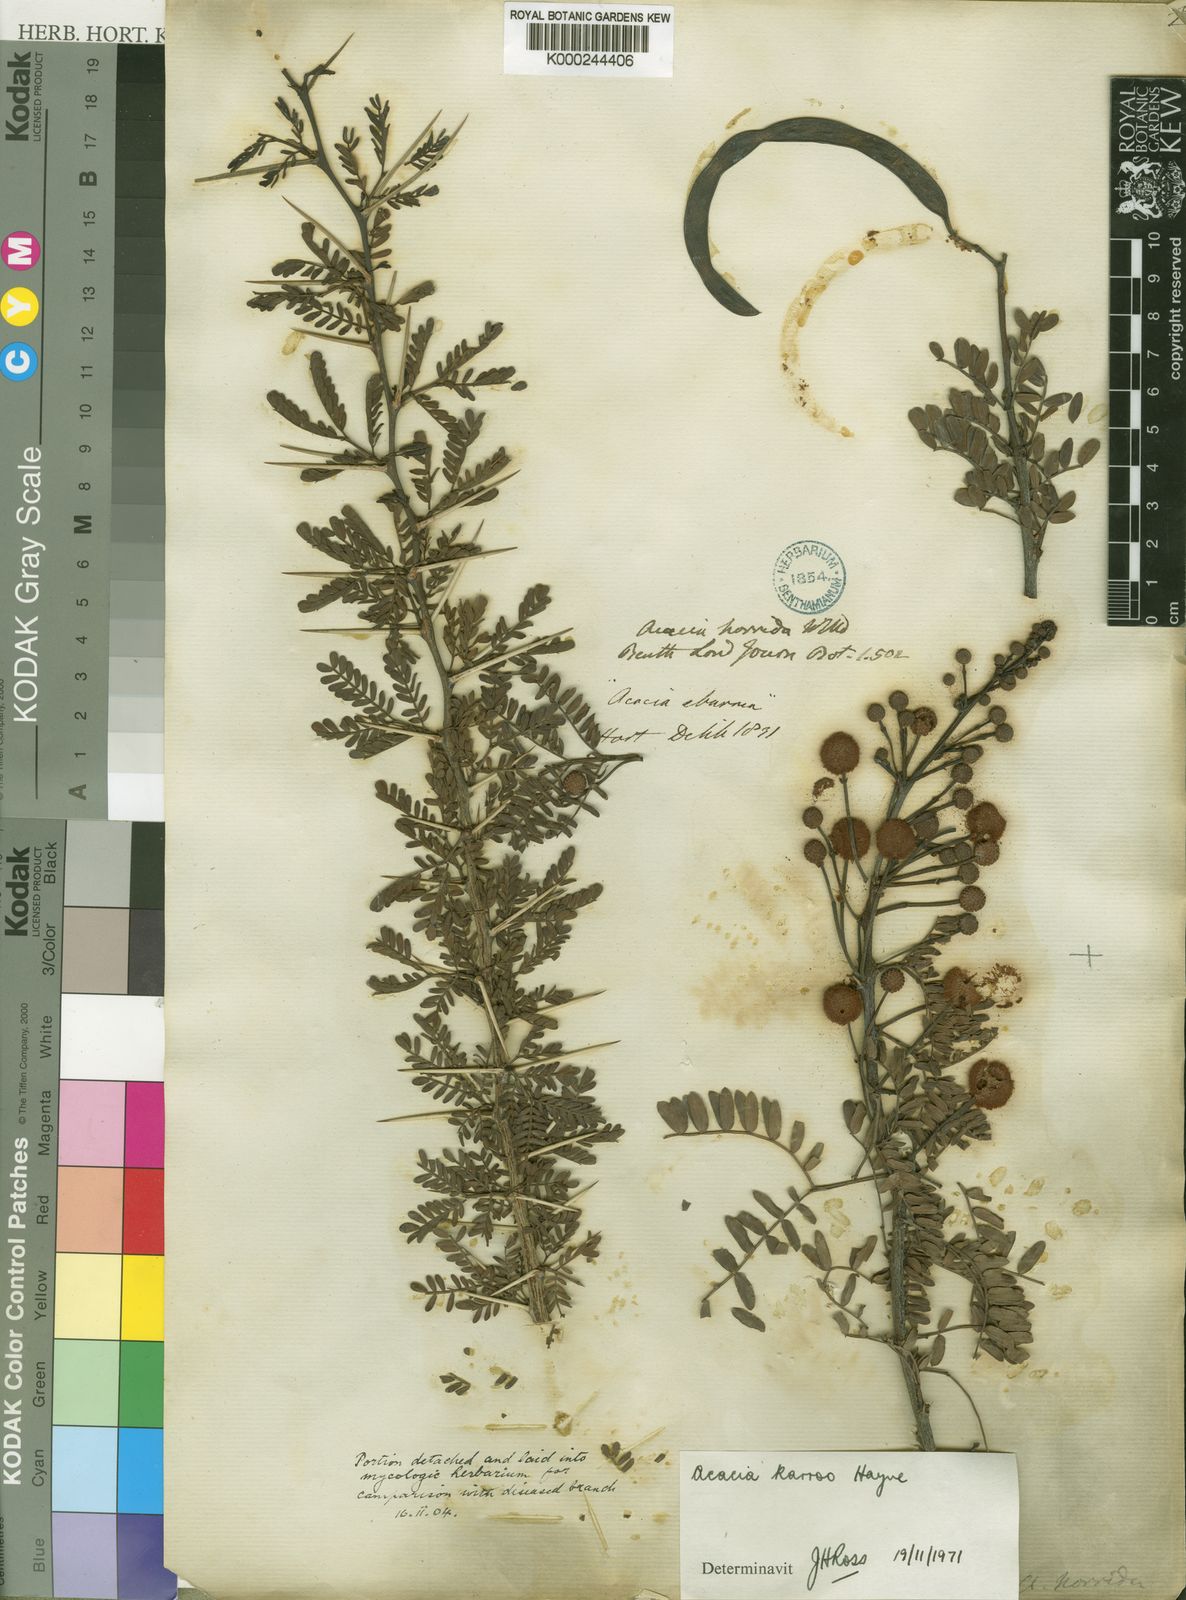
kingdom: Plantae
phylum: Tracheophyta
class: Magnoliopsida
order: Fabales
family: Fabaceae
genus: Vachellia
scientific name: Vachellia karroo
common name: Sweet thorn
